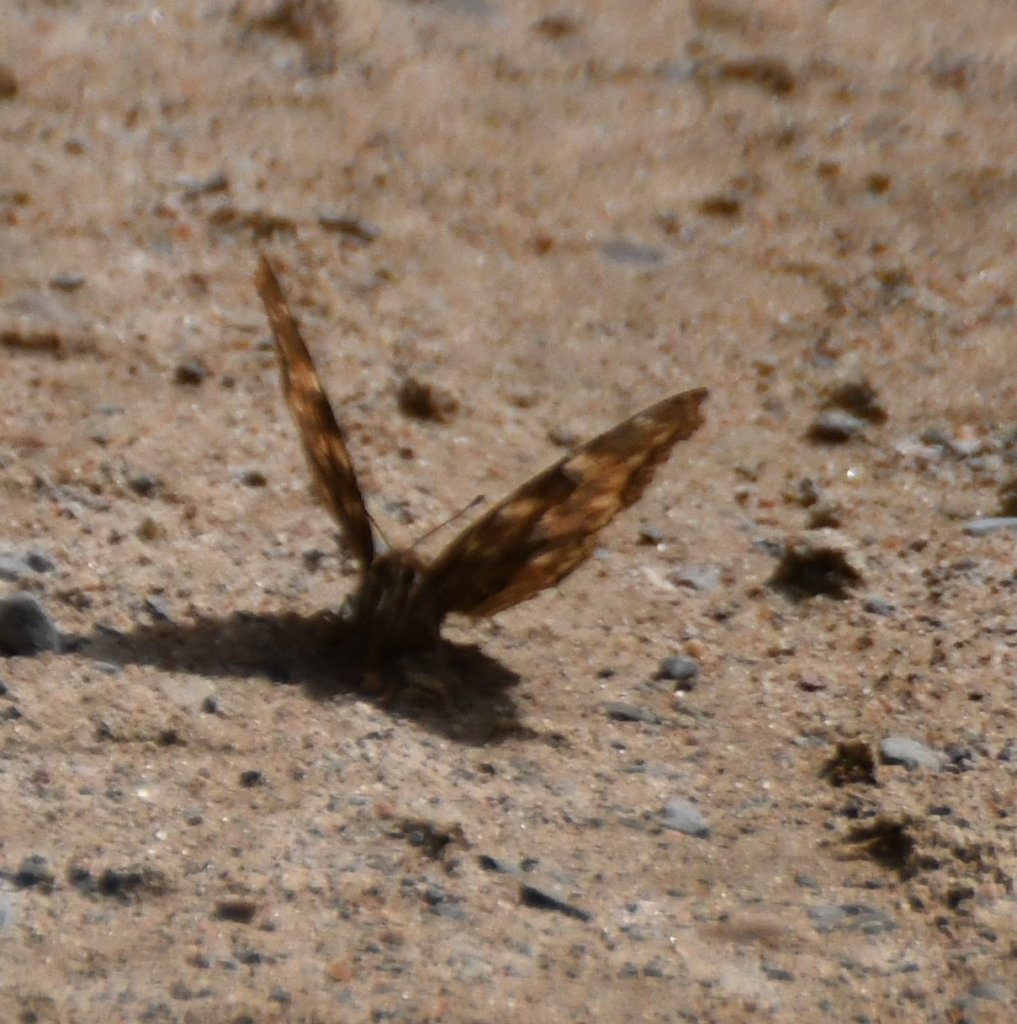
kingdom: Animalia
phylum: Arthropoda
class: Insecta
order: Lepidoptera
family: Nymphalidae
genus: Polygonia
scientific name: Polygonia vaualbum
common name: Compton Tortoiseshell
